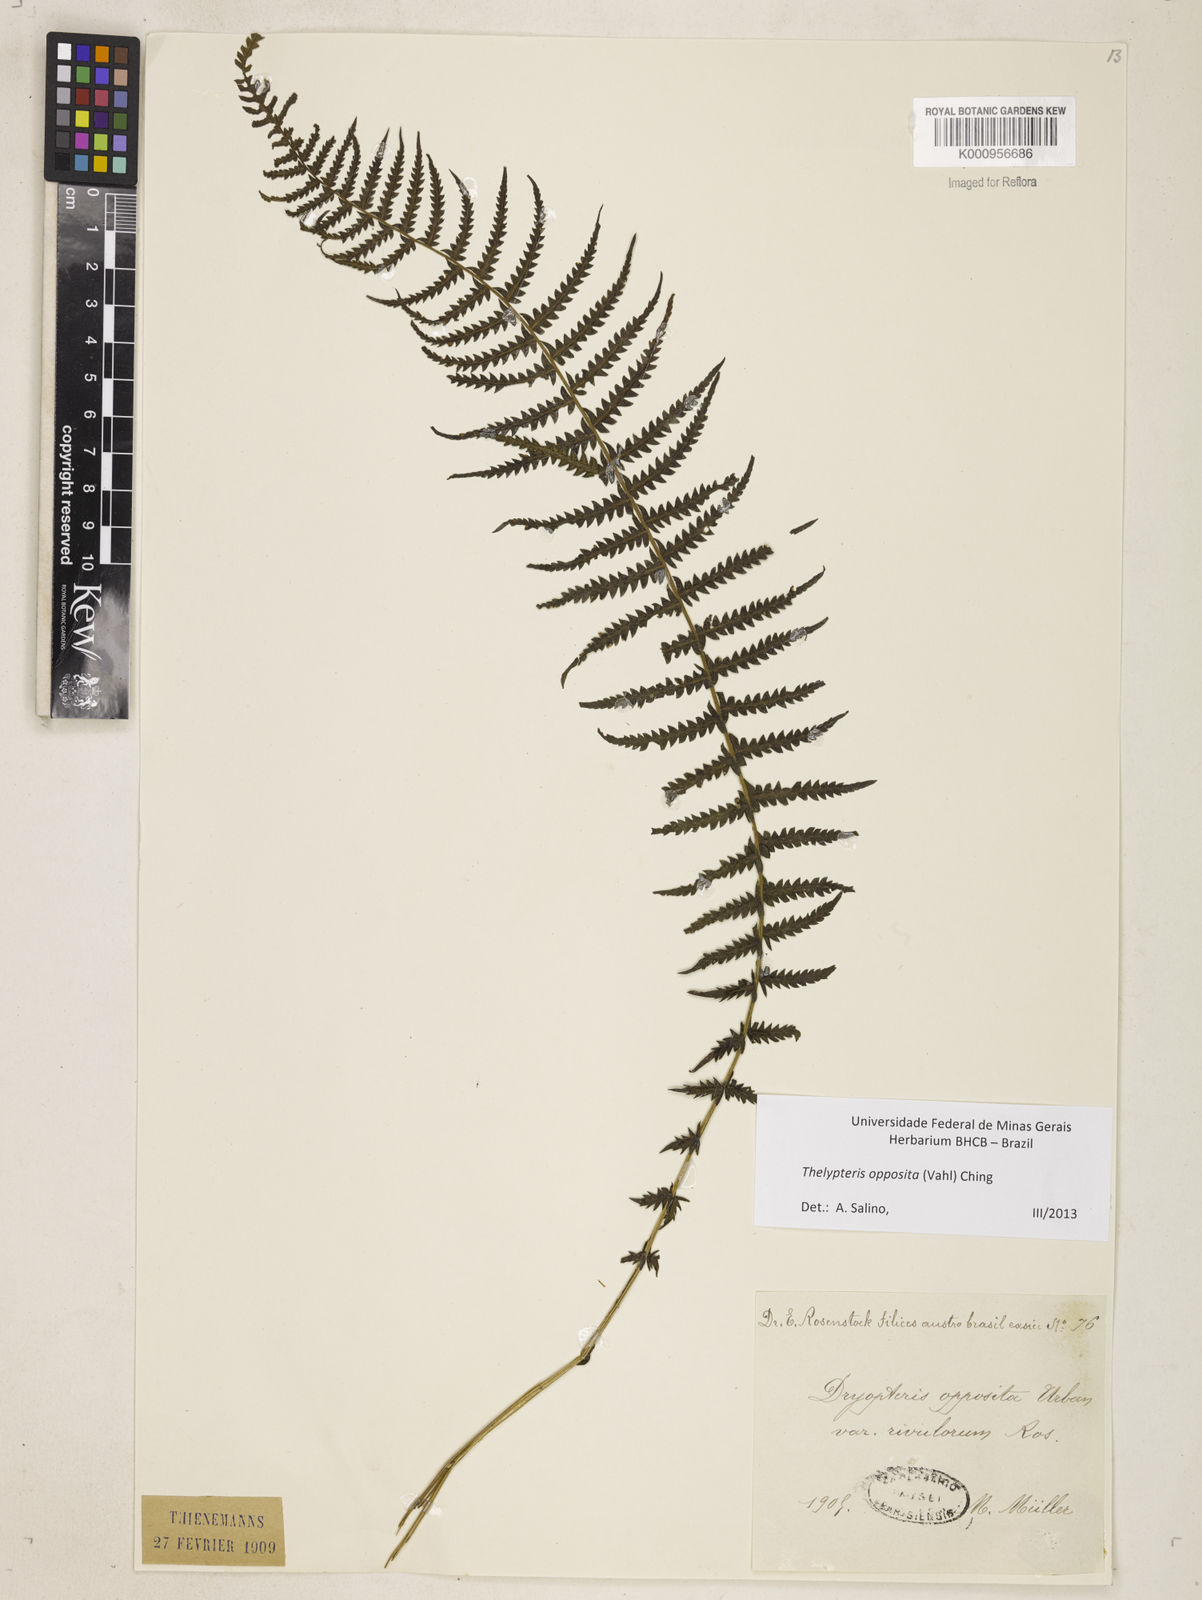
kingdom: Plantae
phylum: Tracheophyta
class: Polypodiopsida
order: Polypodiales
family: Thelypteridaceae
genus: Amauropelta
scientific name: Amauropelta opposita
